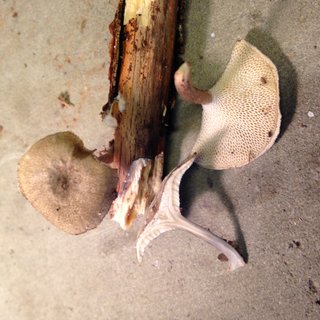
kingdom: Fungi
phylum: Basidiomycota
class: Agaricomycetes
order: Polyporales
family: Polyporaceae
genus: Lentinus
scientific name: Lentinus brumalis
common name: vinter-stilkporesvamp
